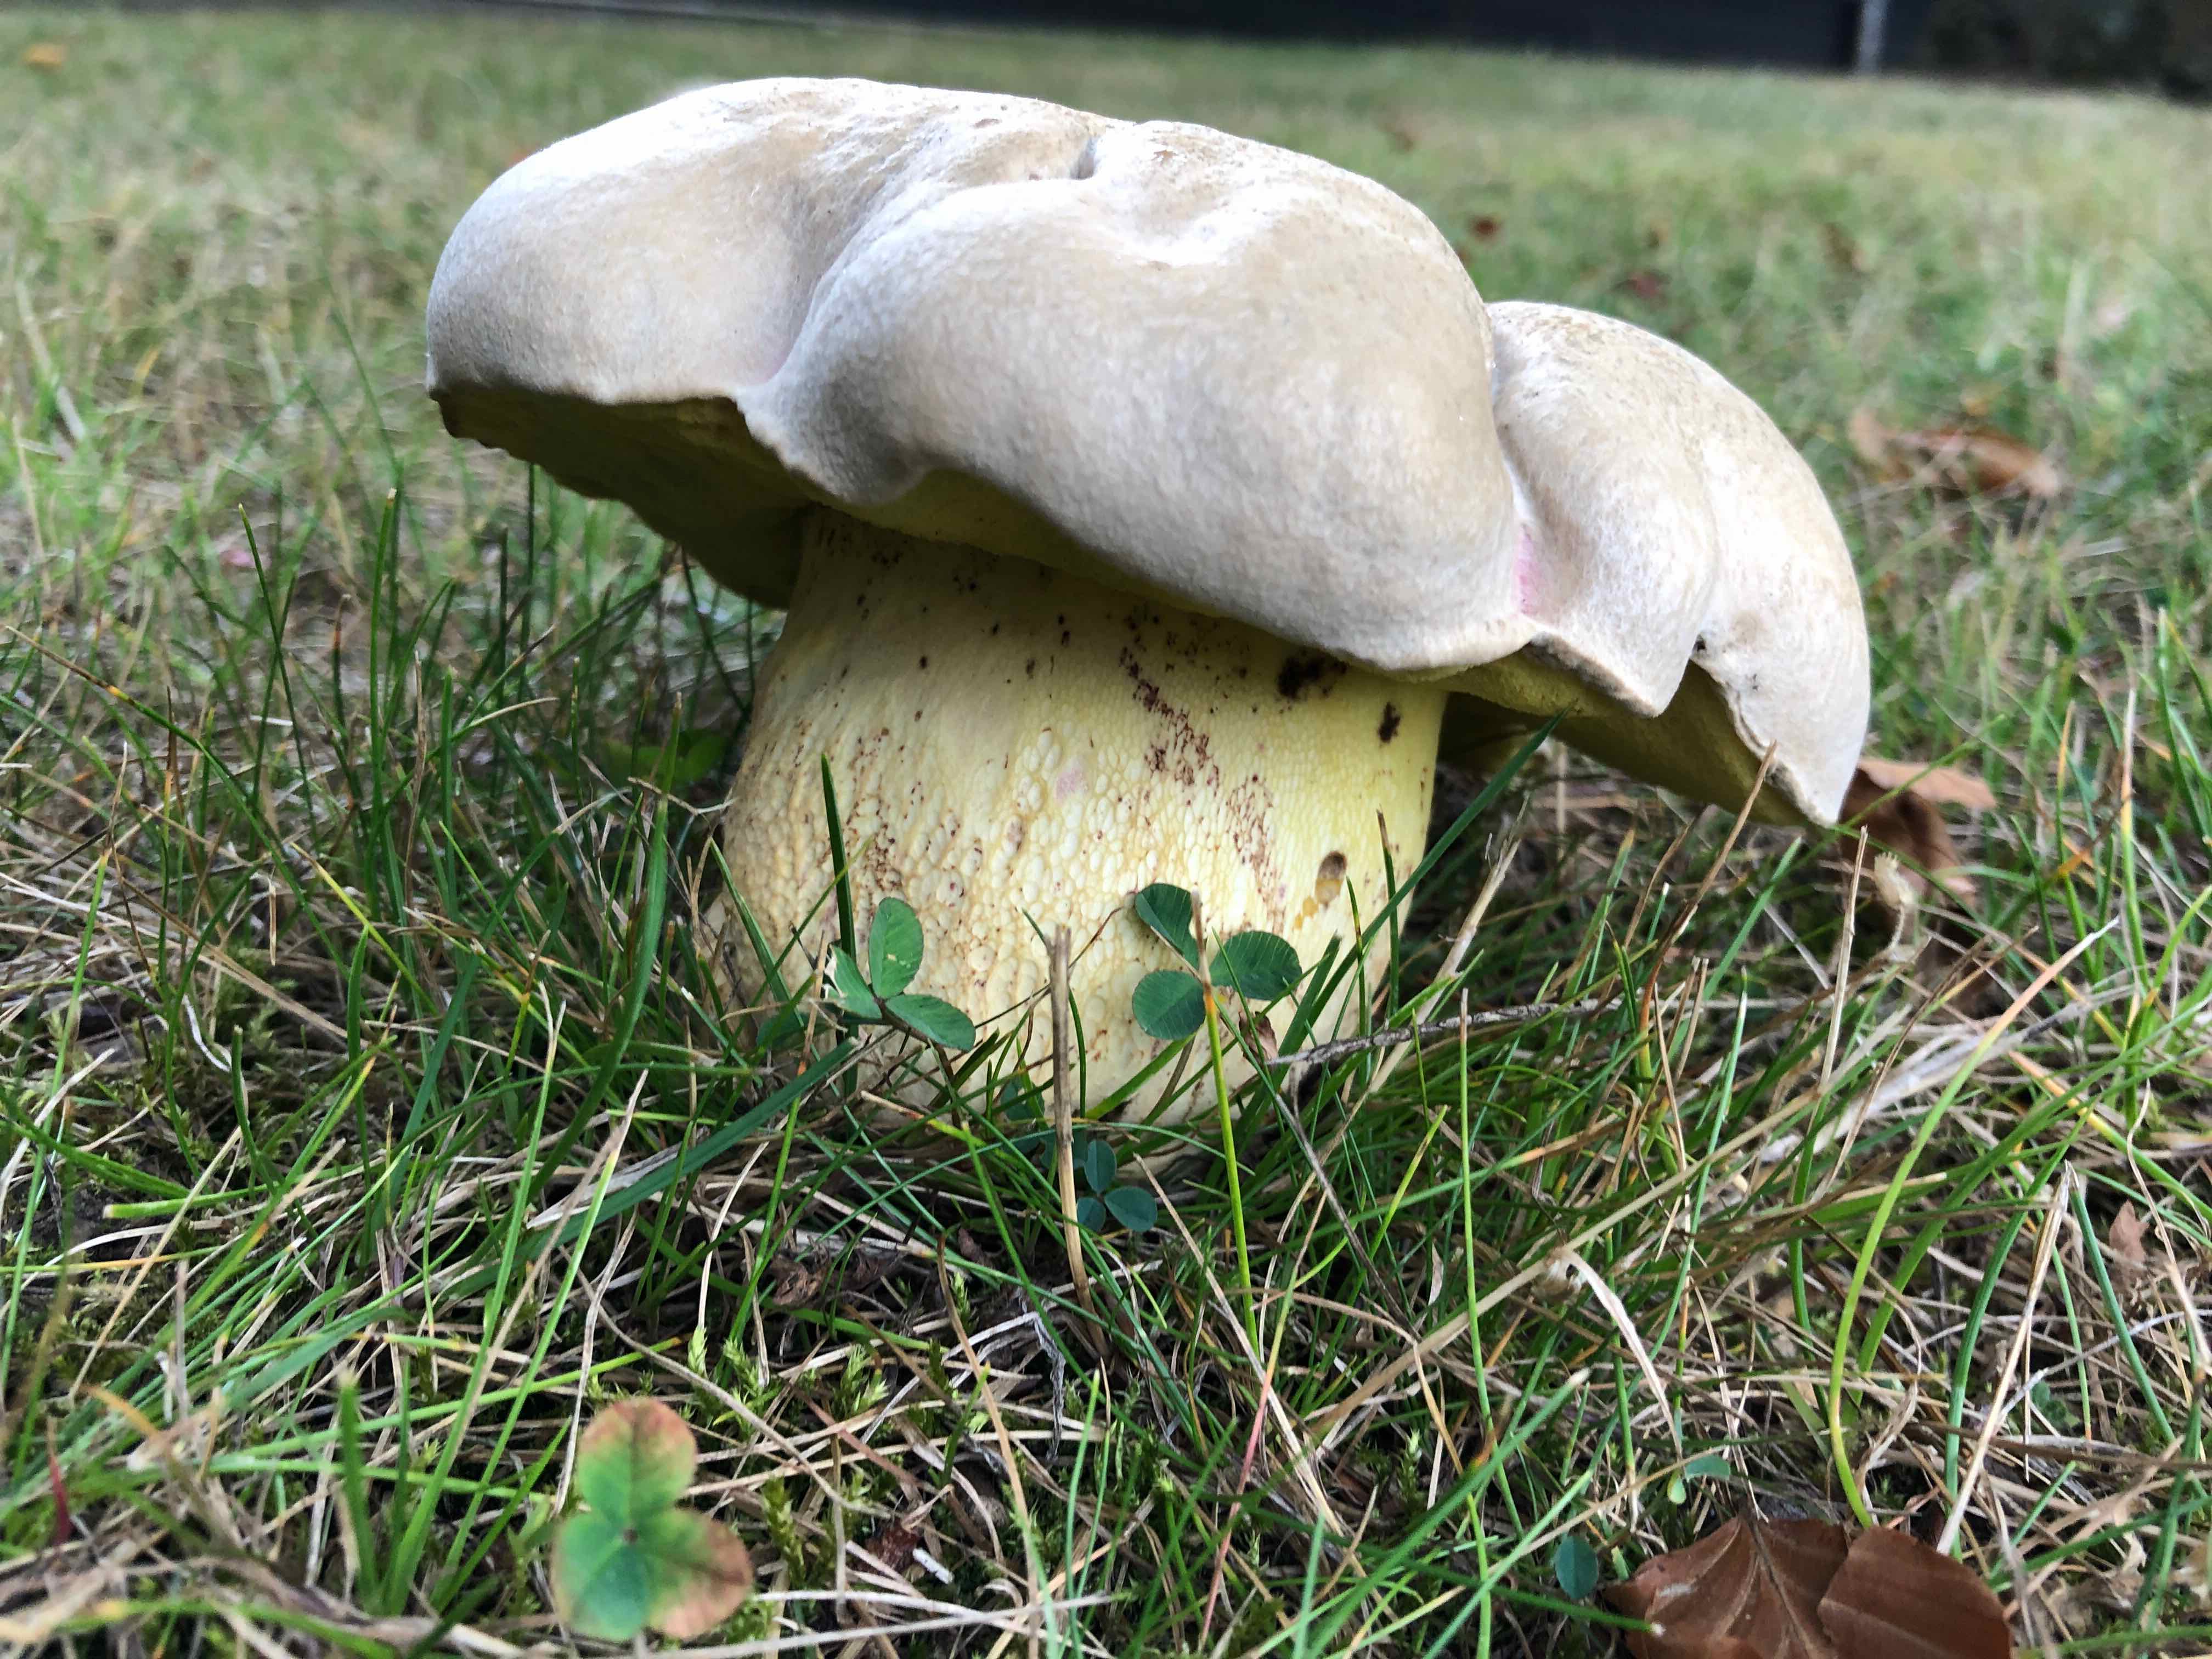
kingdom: Fungi
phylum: Basidiomycota
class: Agaricomycetes
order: Boletales
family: Boletaceae
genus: Caloboletus
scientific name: Caloboletus radicans
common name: rod-rørhat
